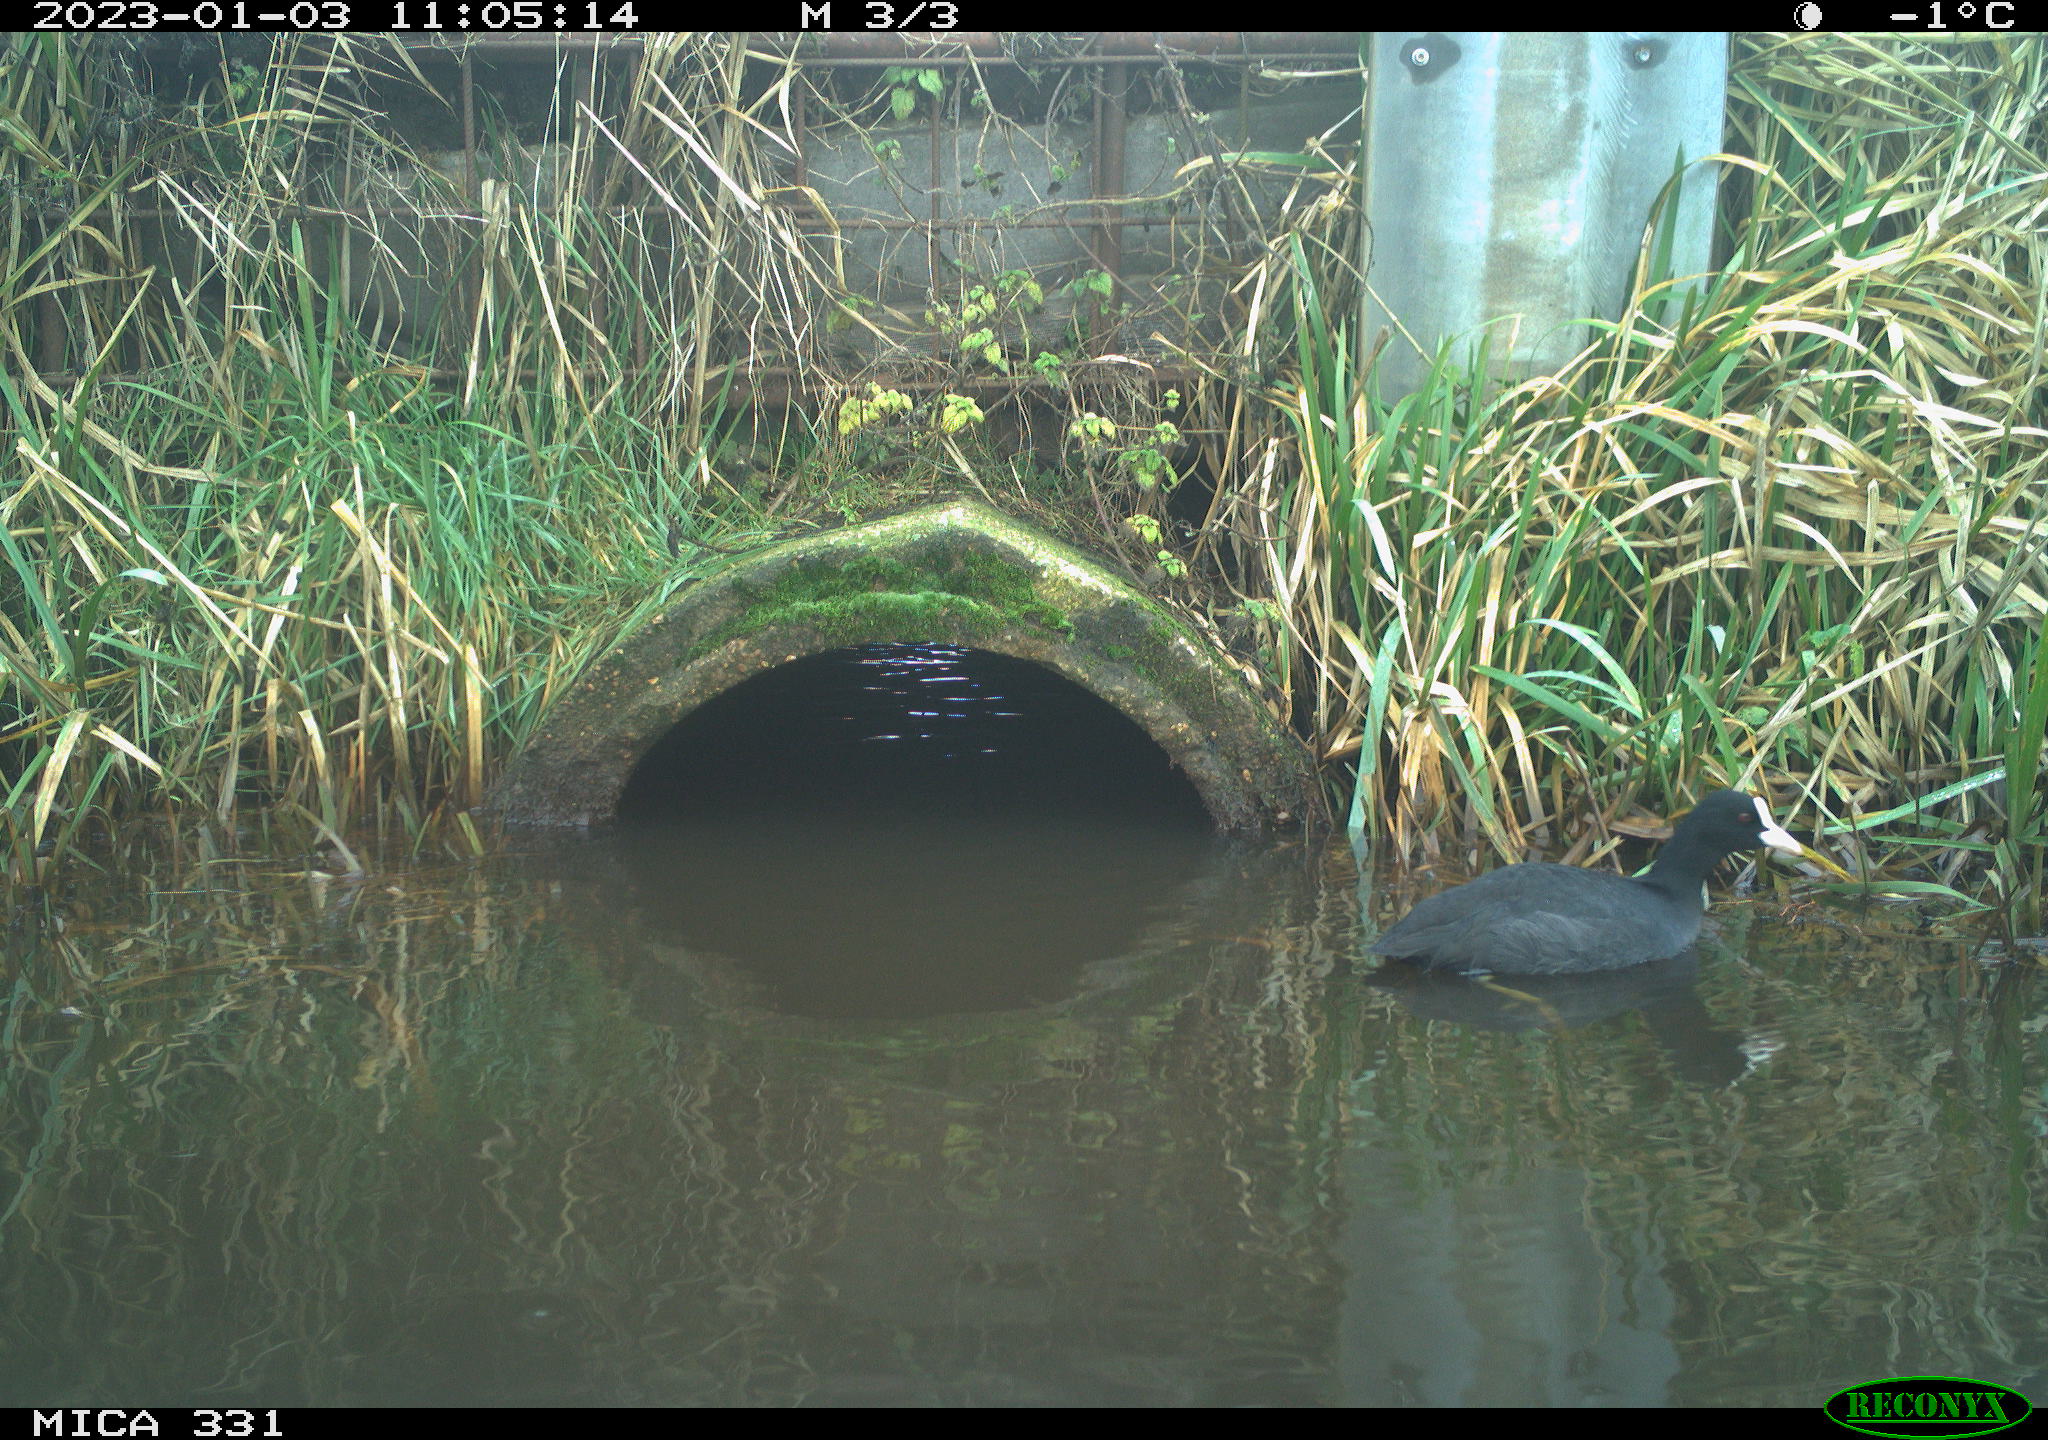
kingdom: Animalia
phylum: Chordata
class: Aves
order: Gruiformes
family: Rallidae
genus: Fulica
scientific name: Fulica atra
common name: Eurasian coot
